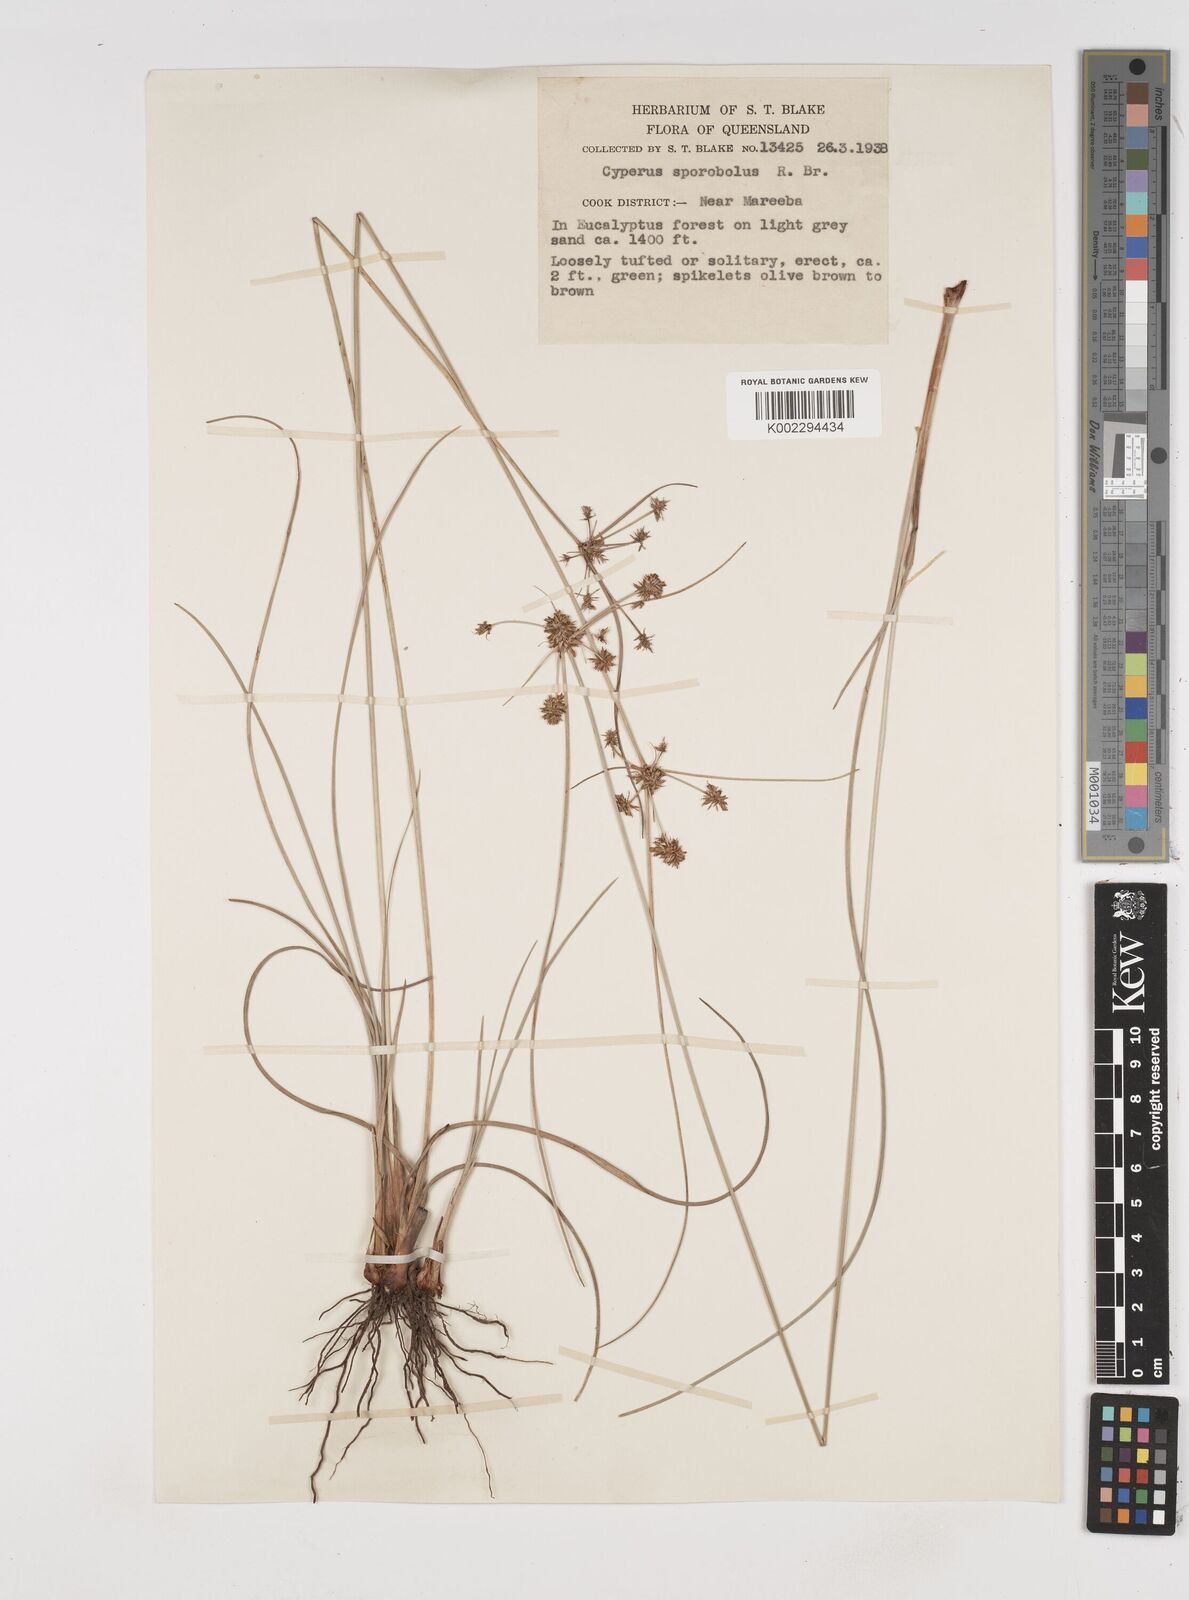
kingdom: Plantae
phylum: Tracheophyta
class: Liliopsida
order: Poales
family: Cyperaceae
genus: Cyperus
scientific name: Cyperus sporobolus
